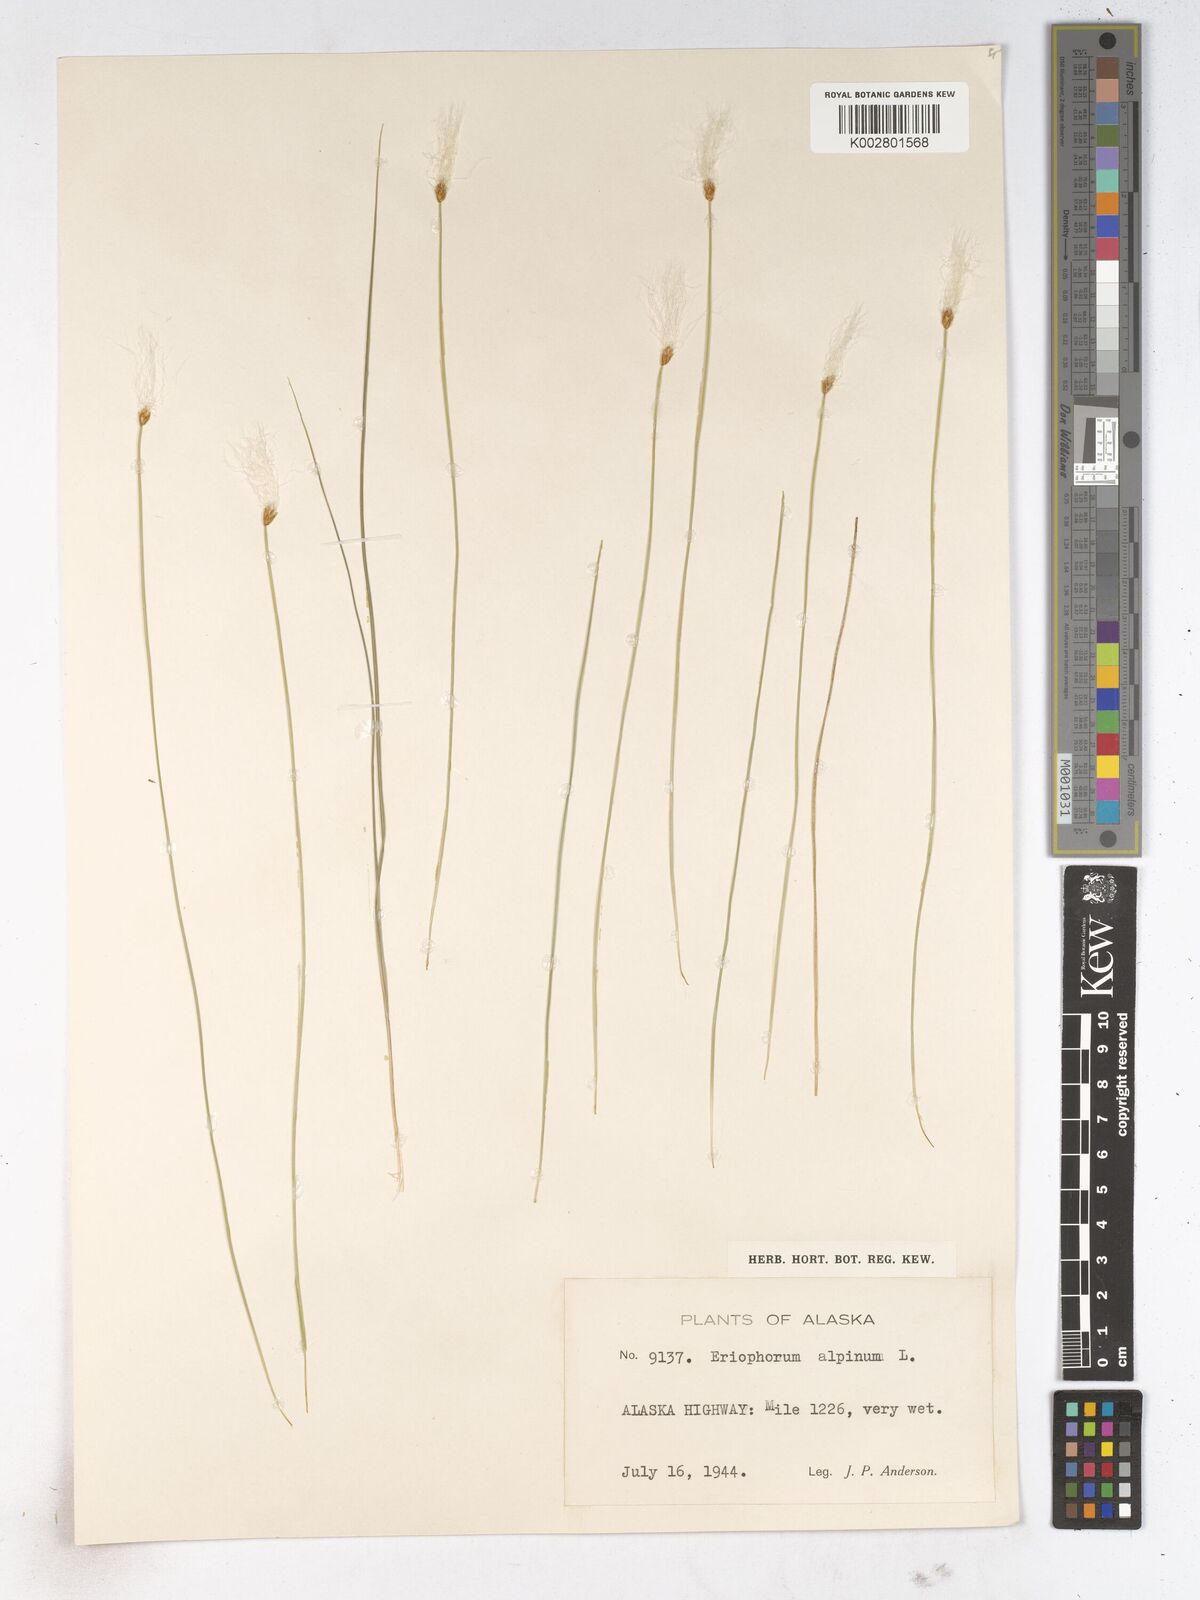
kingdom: Plantae
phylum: Tracheophyta
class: Liliopsida
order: Poales
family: Cyperaceae
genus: Trichophorum
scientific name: Trichophorum alpinum
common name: Alpine bulrush
